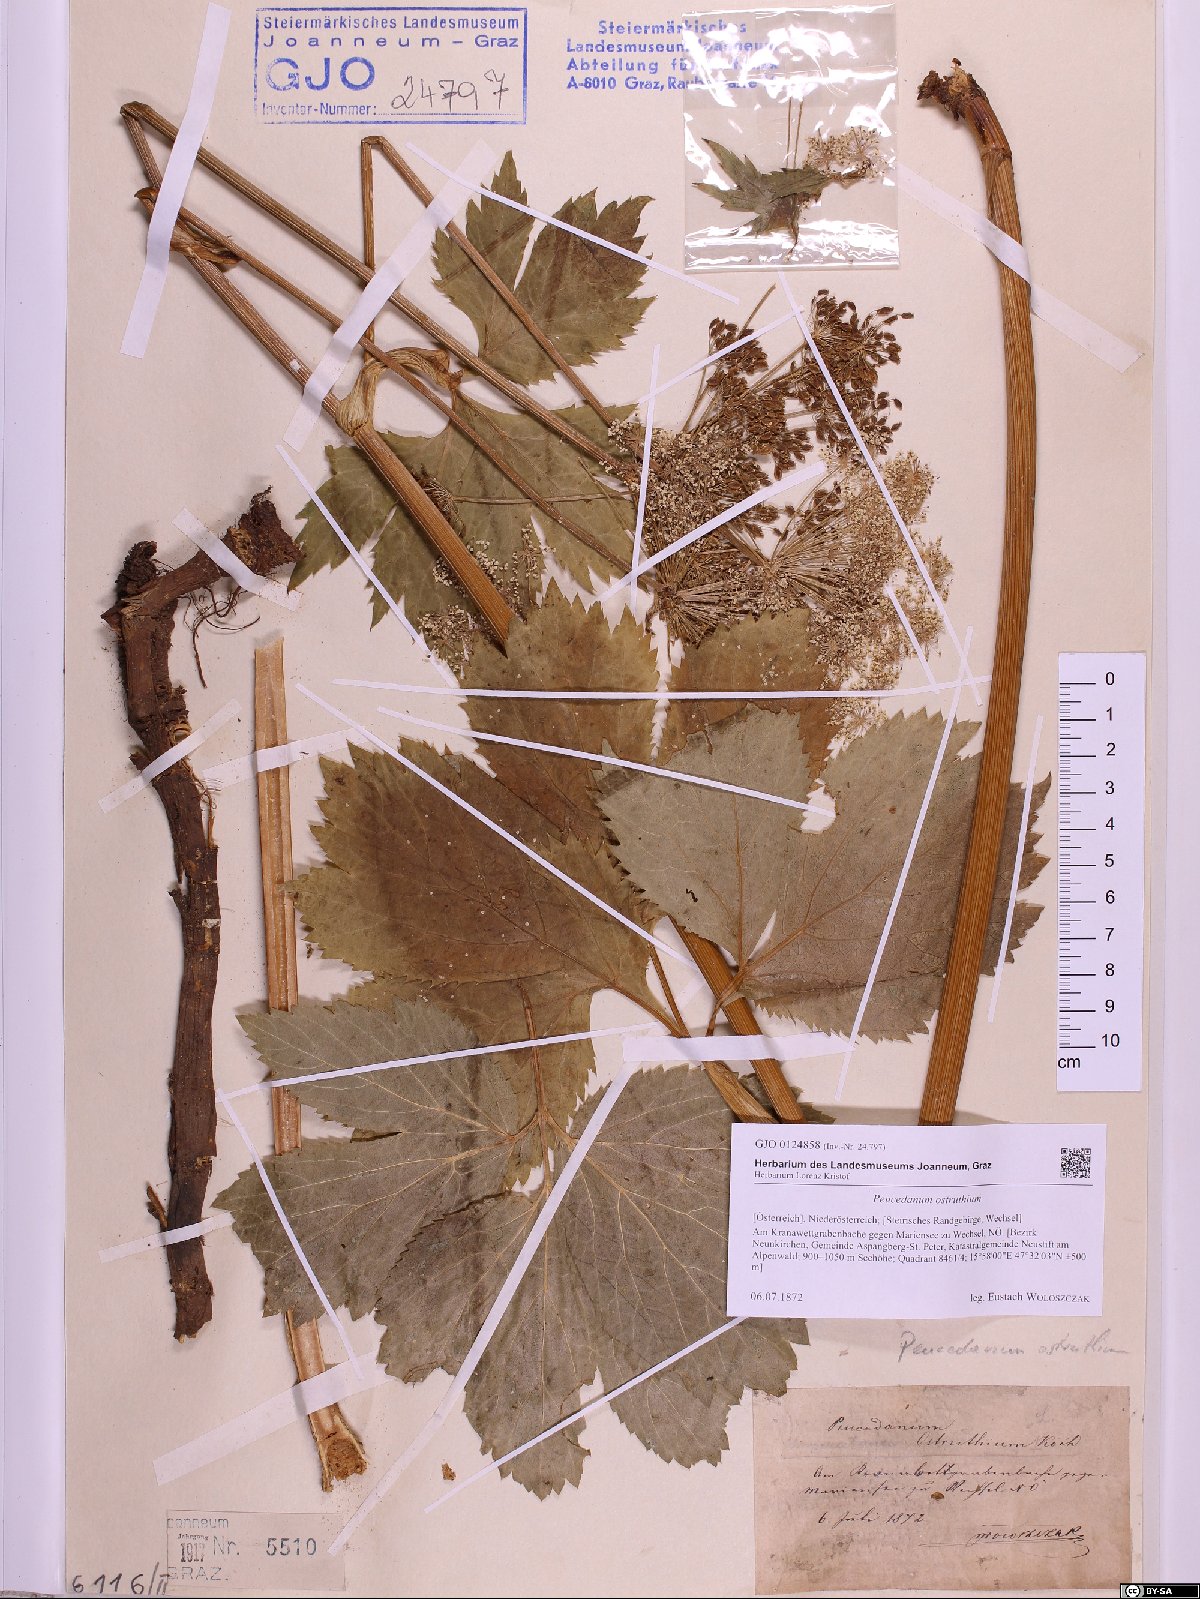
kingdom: Plantae
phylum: Tracheophyta
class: Magnoliopsida
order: Apiales
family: Apiaceae
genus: Imperatoria
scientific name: Imperatoria ostruthium
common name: Masterwort
